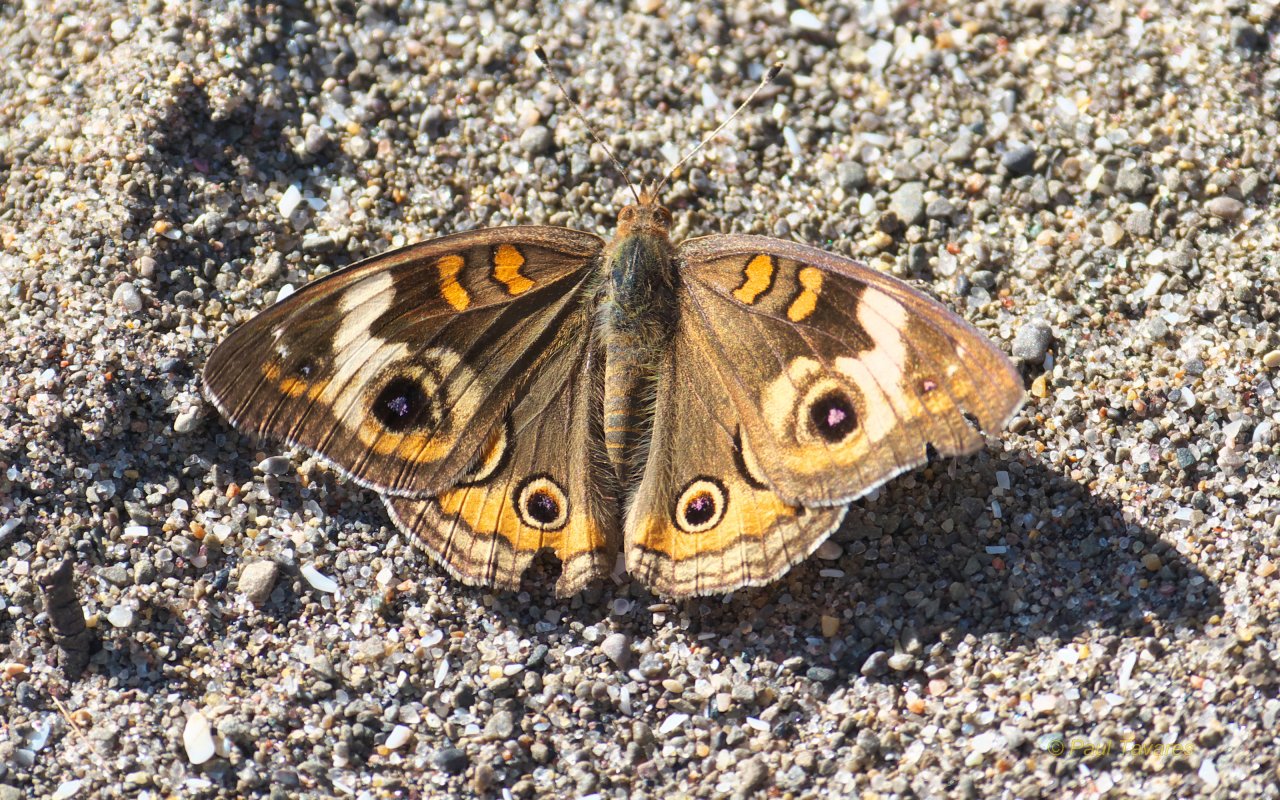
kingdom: Animalia
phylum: Arthropoda
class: Insecta
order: Lepidoptera
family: Nymphalidae
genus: Junonia
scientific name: Junonia coenia
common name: Common Buckeye
